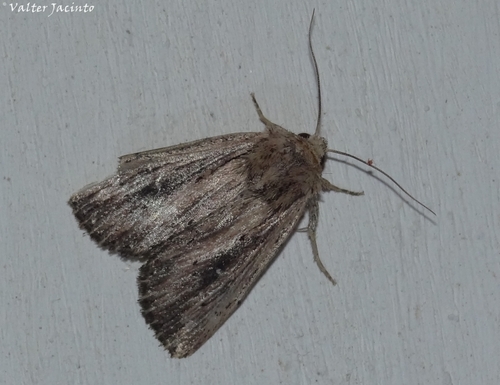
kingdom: Animalia
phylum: Arthropoda
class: Insecta
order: Lepidoptera
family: Noctuidae
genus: Leucania
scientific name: Leucania putrescens
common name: Devonshire wainscot
